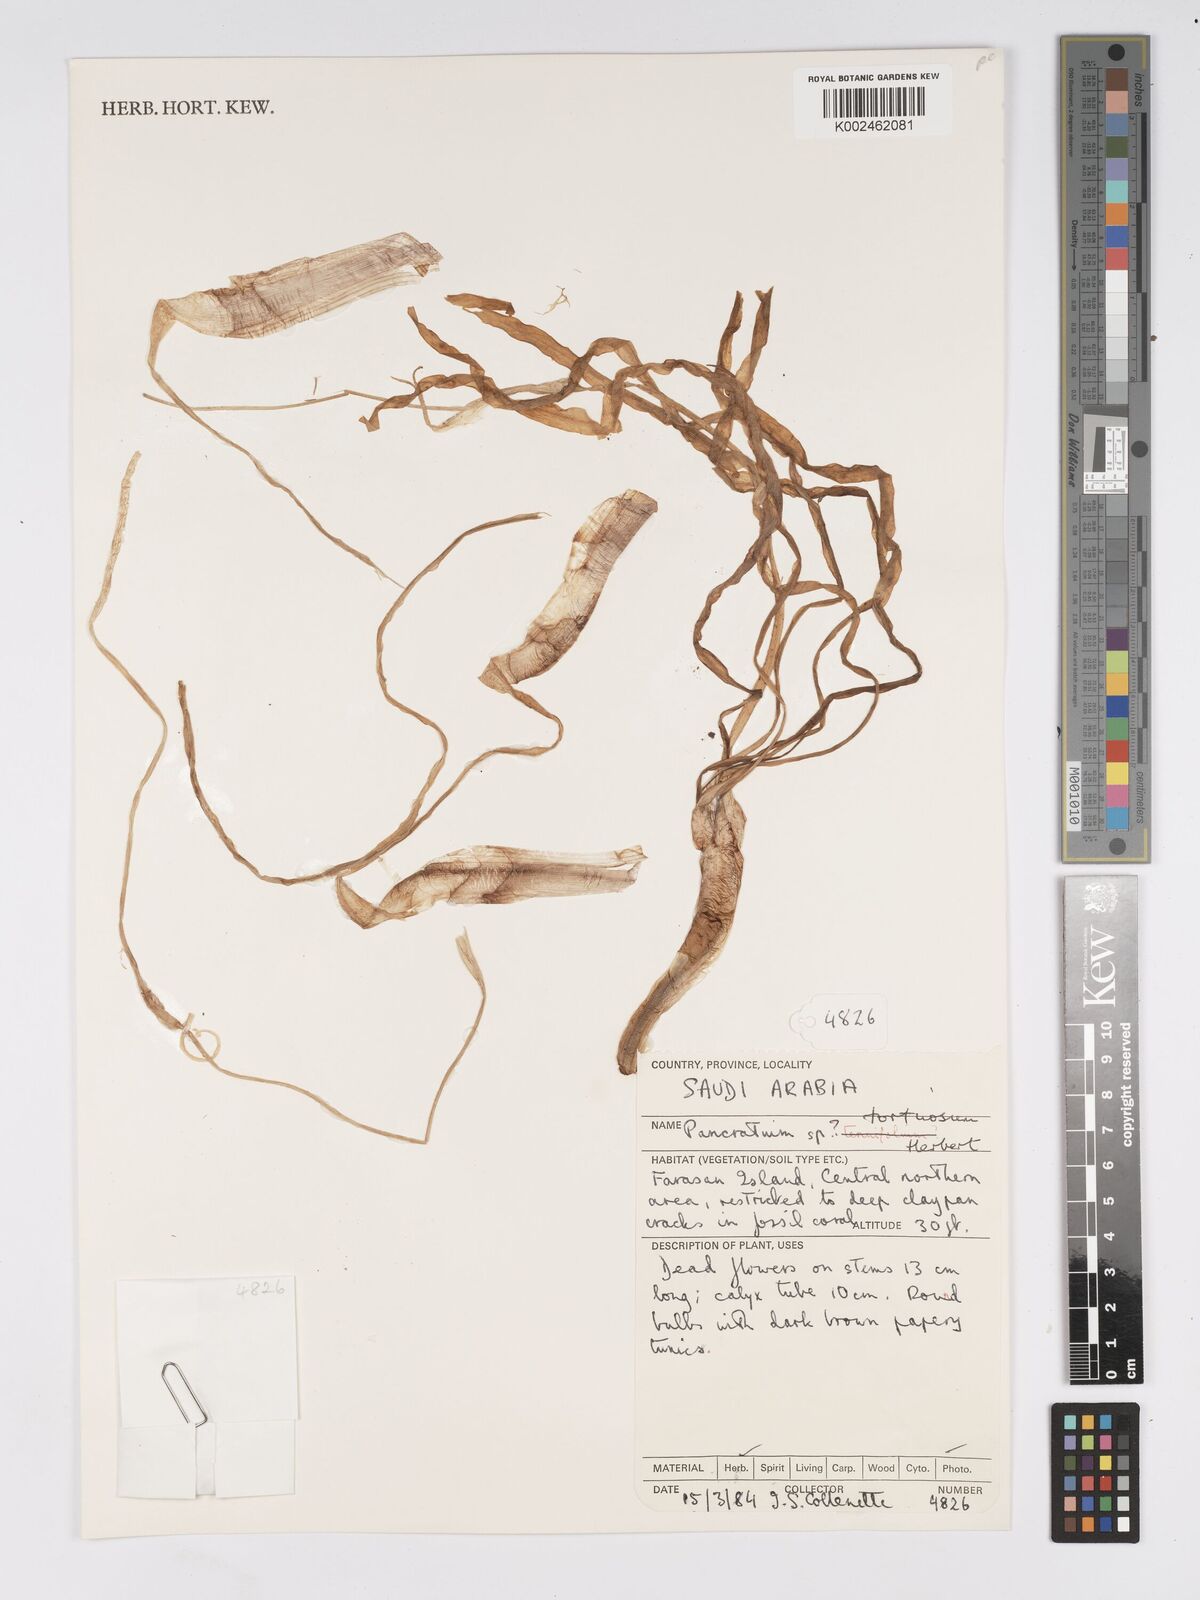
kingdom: Plantae
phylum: Tracheophyta
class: Liliopsida
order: Asparagales
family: Amaryllidaceae
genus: Pancratium
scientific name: Pancratium tortuosum
